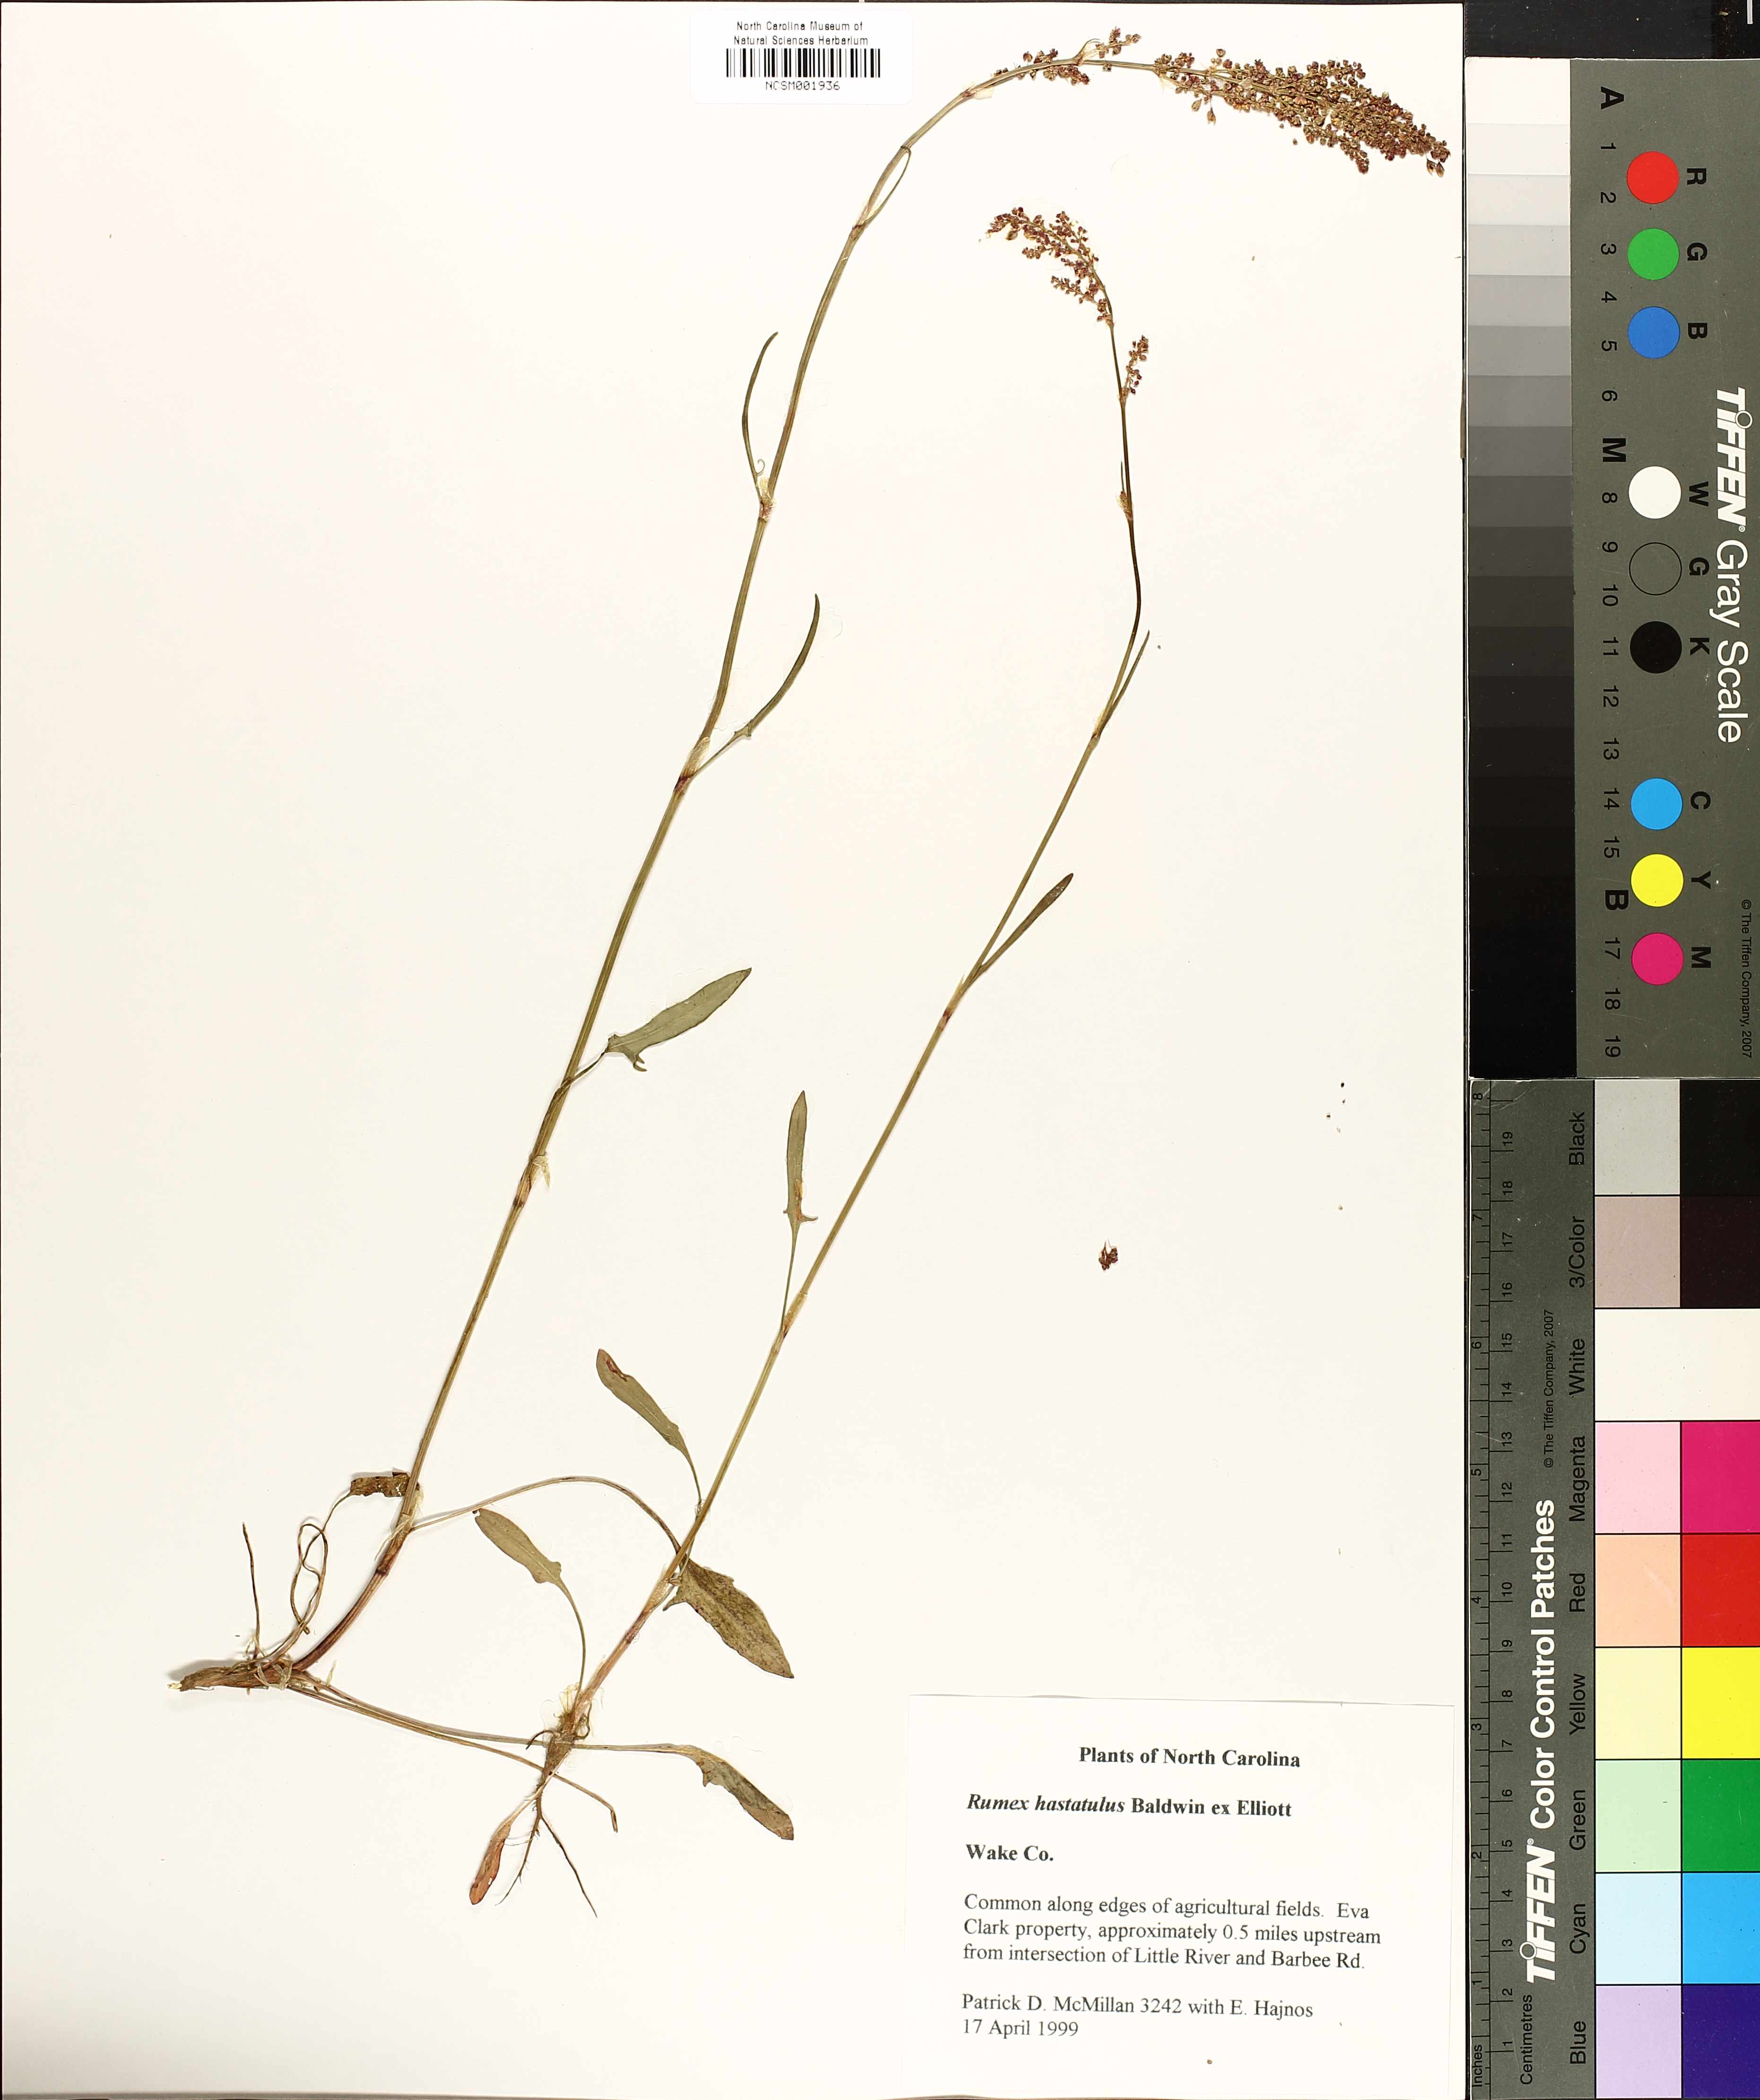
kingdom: Plantae
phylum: Tracheophyta
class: Magnoliopsida
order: Caryophyllales
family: Polygonaceae
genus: Rumex
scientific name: Rumex hastatulus
